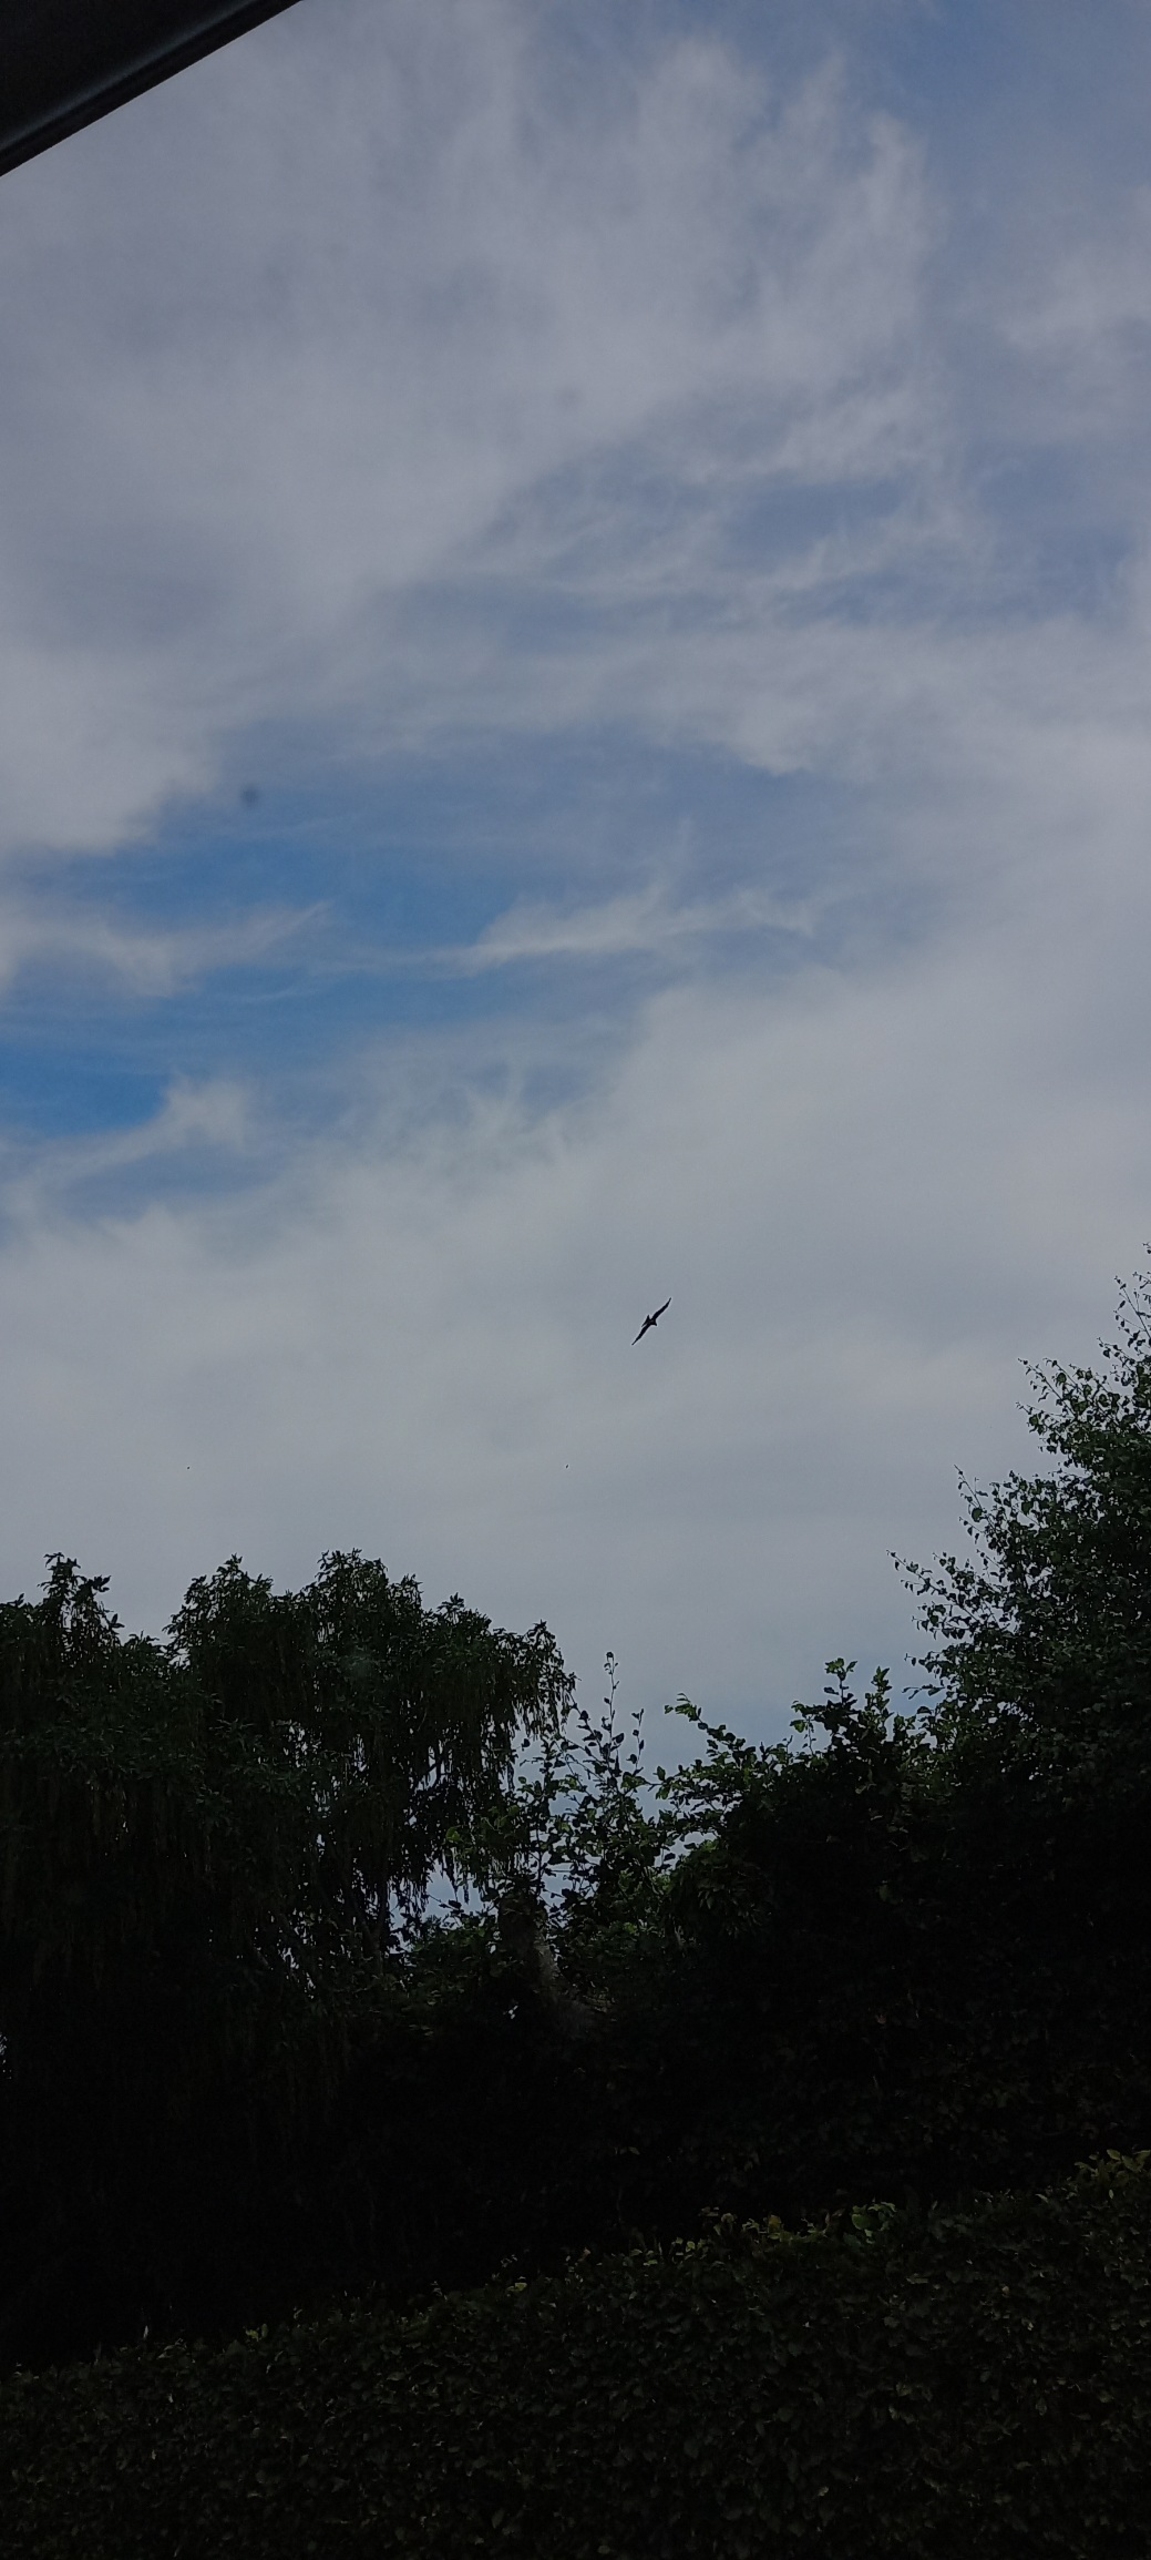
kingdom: Animalia
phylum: Chordata
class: Aves
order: Accipitriformes
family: Accipitridae
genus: Milvus
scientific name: Milvus milvus
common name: Rød glente
